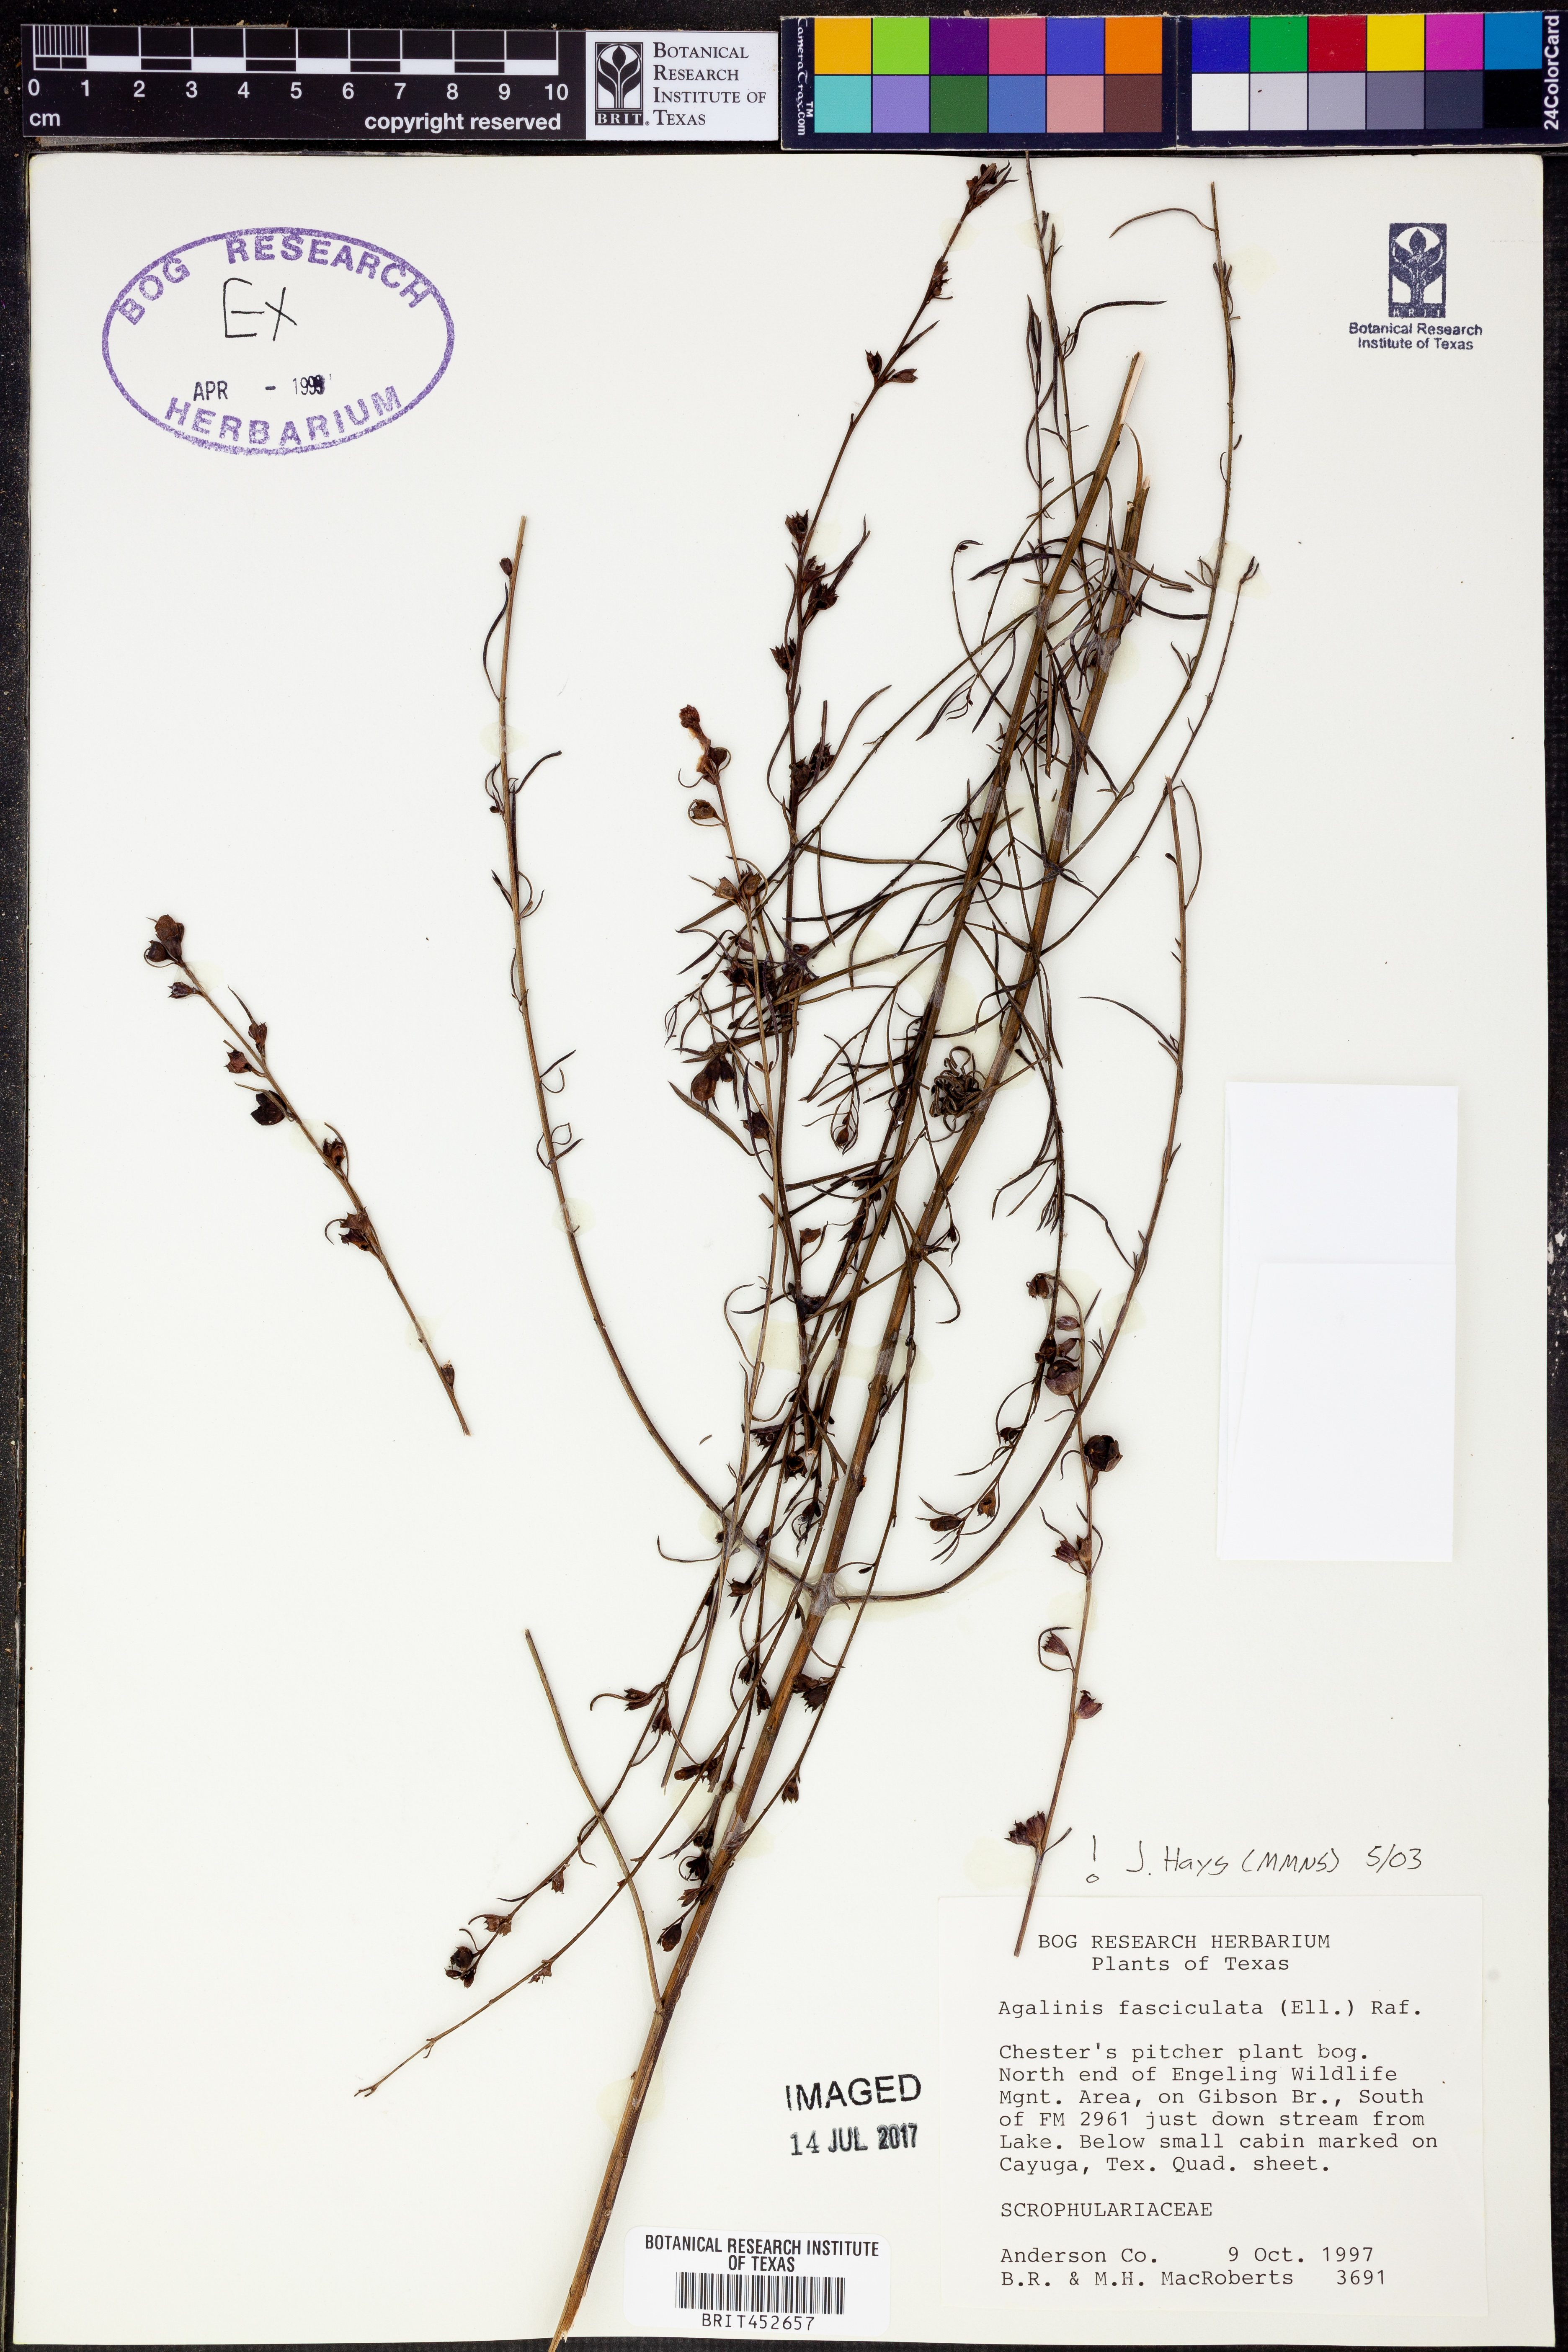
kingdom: Plantae
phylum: Tracheophyta
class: Magnoliopsida
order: Lamiales
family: Orobanchaceae
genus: Agalinis
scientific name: Agalinis fasciculata
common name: Beach false foxglove
